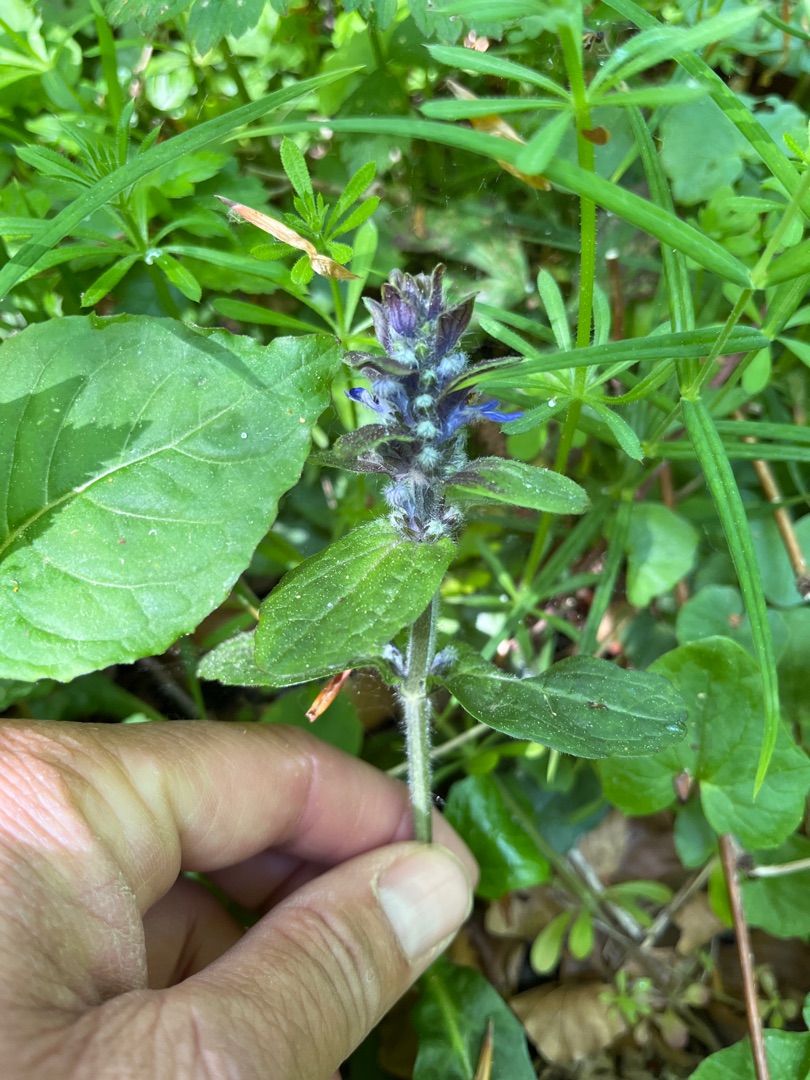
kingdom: Plantae
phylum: Tracheophyta
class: Magnoliopsida
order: Lamiales
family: Lamiaceae
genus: Ajuga
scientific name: Ajuga reptans
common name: Krybende læbeløs
